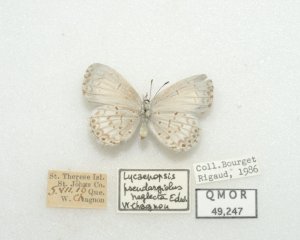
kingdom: Animalia
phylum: Arthropoda
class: Insecta
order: Lepidoptera
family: Lycaenidae
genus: Cyaniris
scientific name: Cyaniris neglecta
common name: Summer Azure
